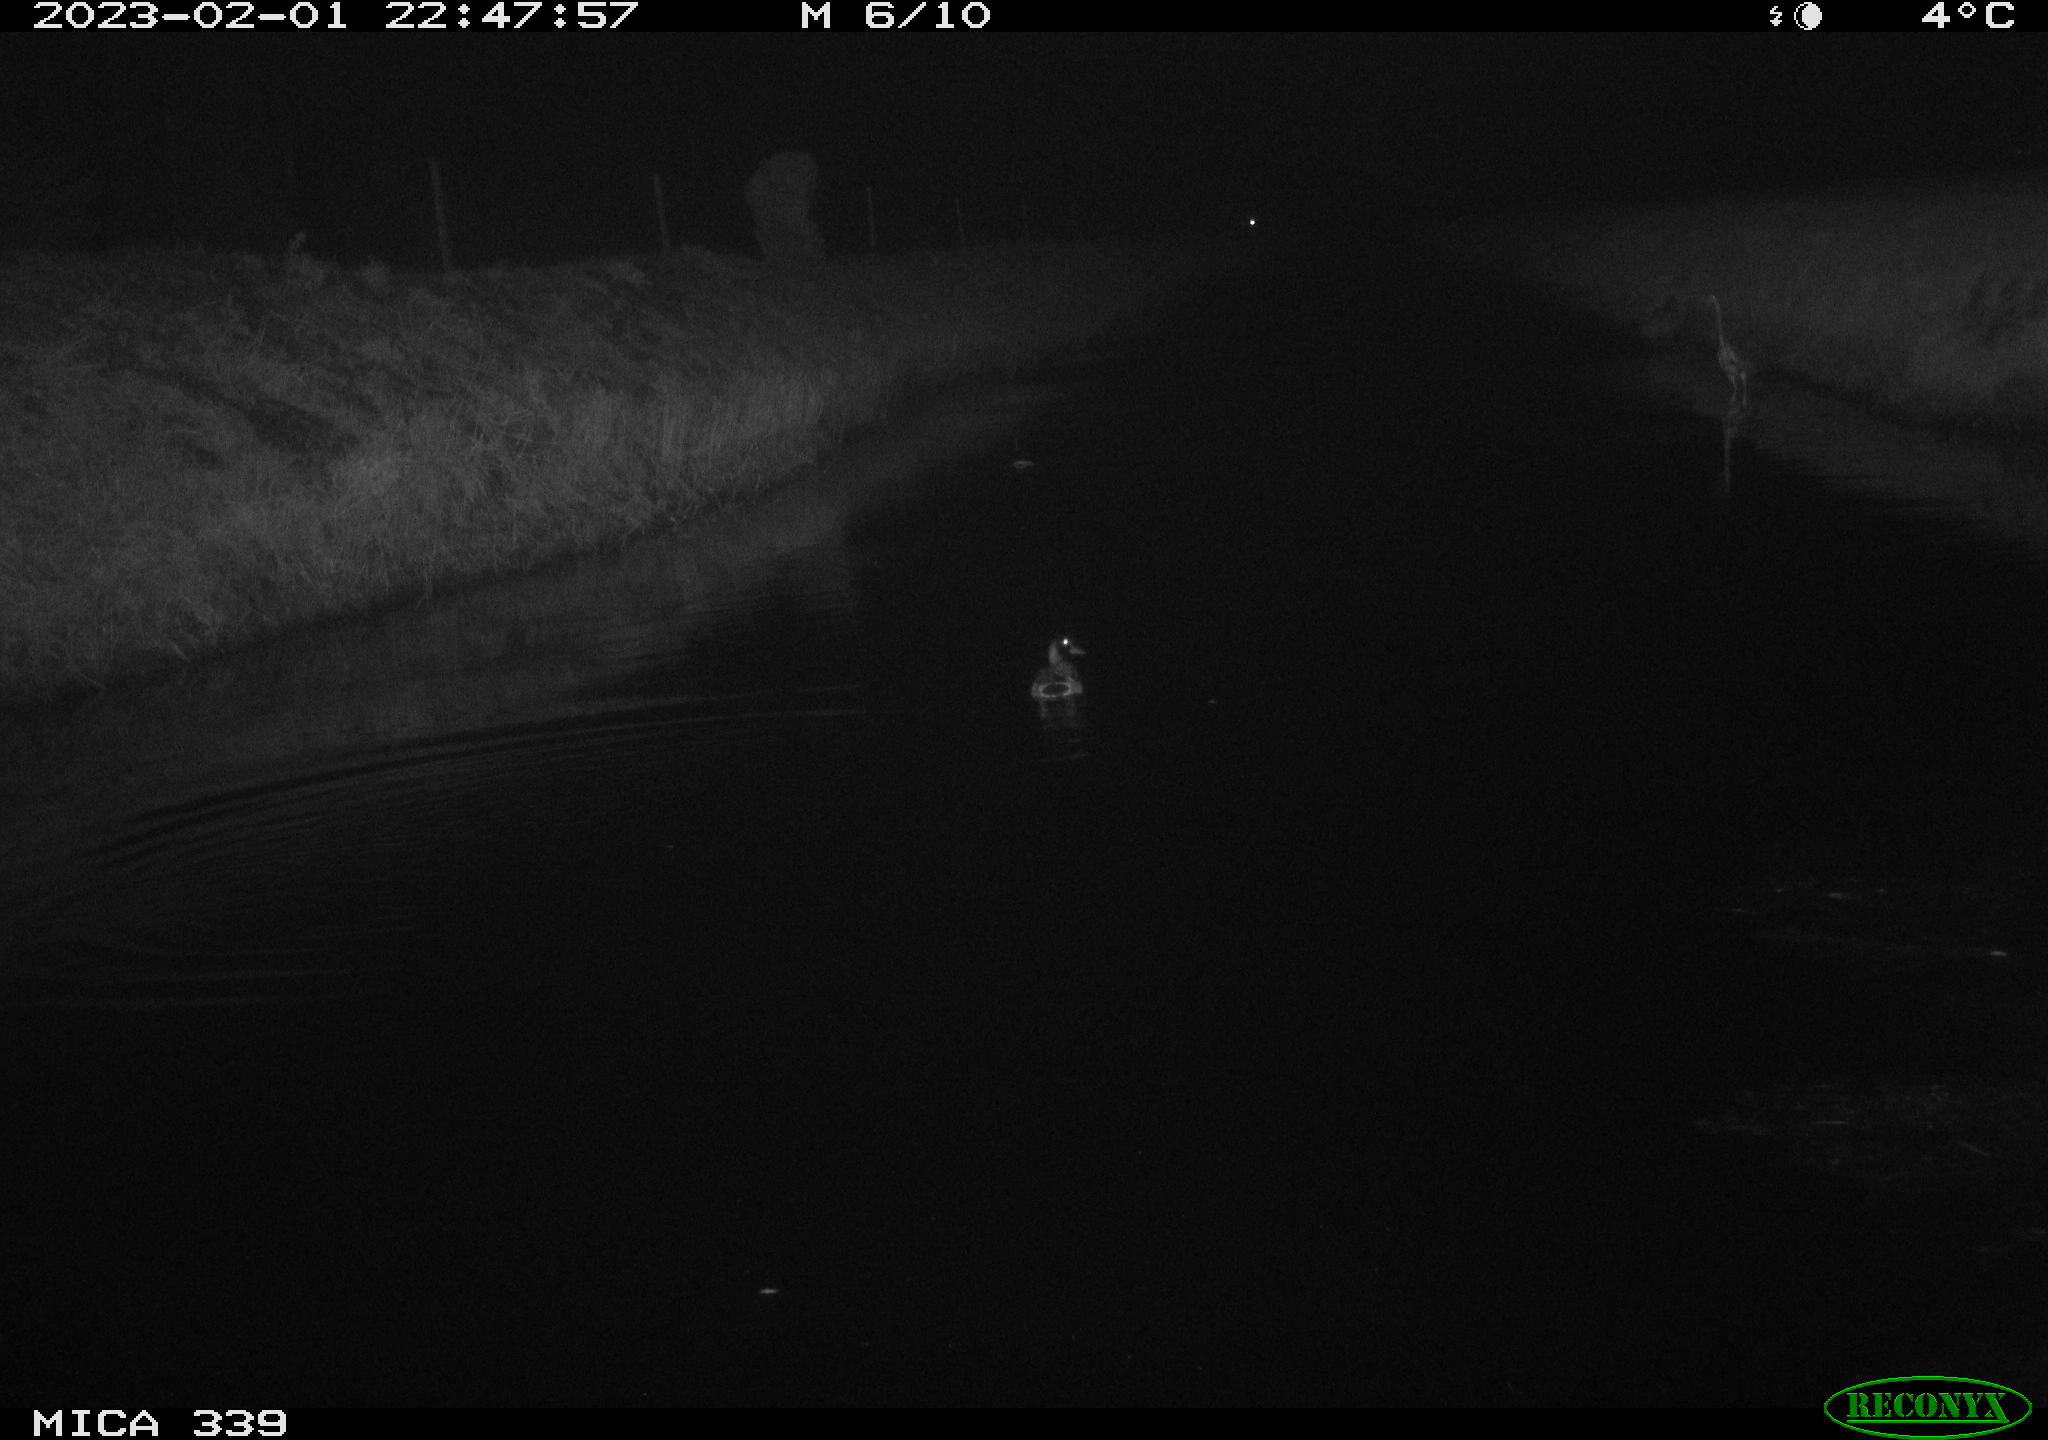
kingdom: Animalia
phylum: Chordata
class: Aves
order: Anseriformes
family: Anatidae
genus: Anas
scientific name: Anas
